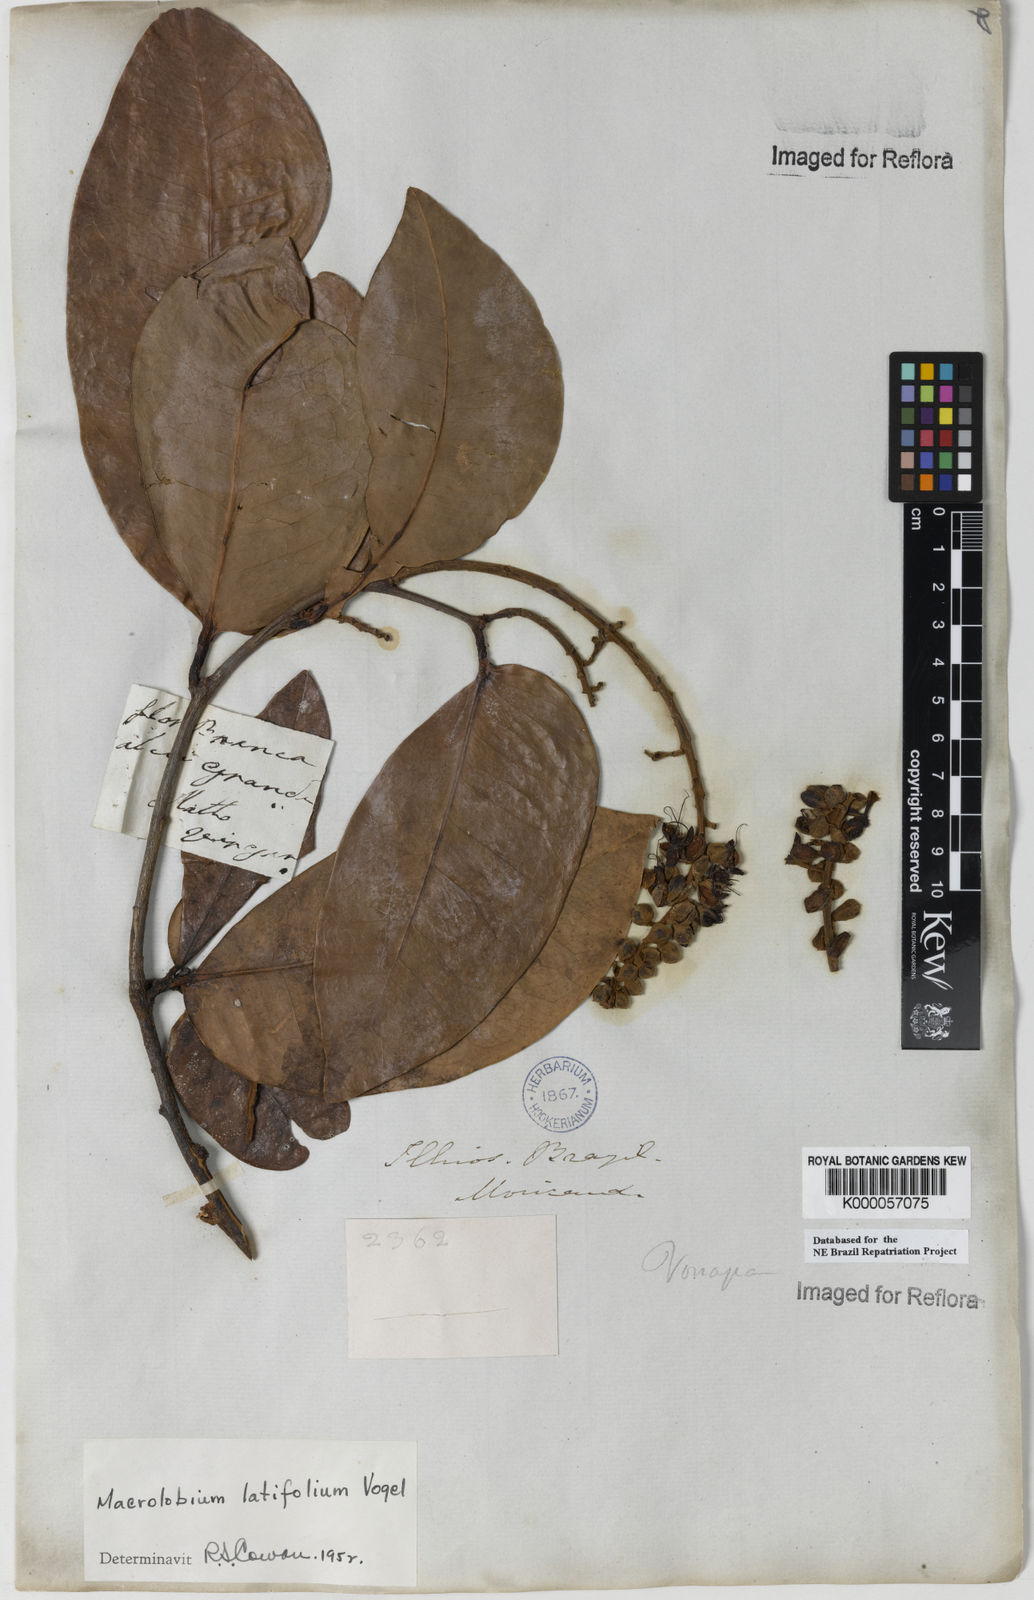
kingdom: Plantae
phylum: Tracheophyta
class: Magnoliopsida
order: Fabales
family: Fabaceae
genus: Macrolobium
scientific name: Macrolobium latifolium
